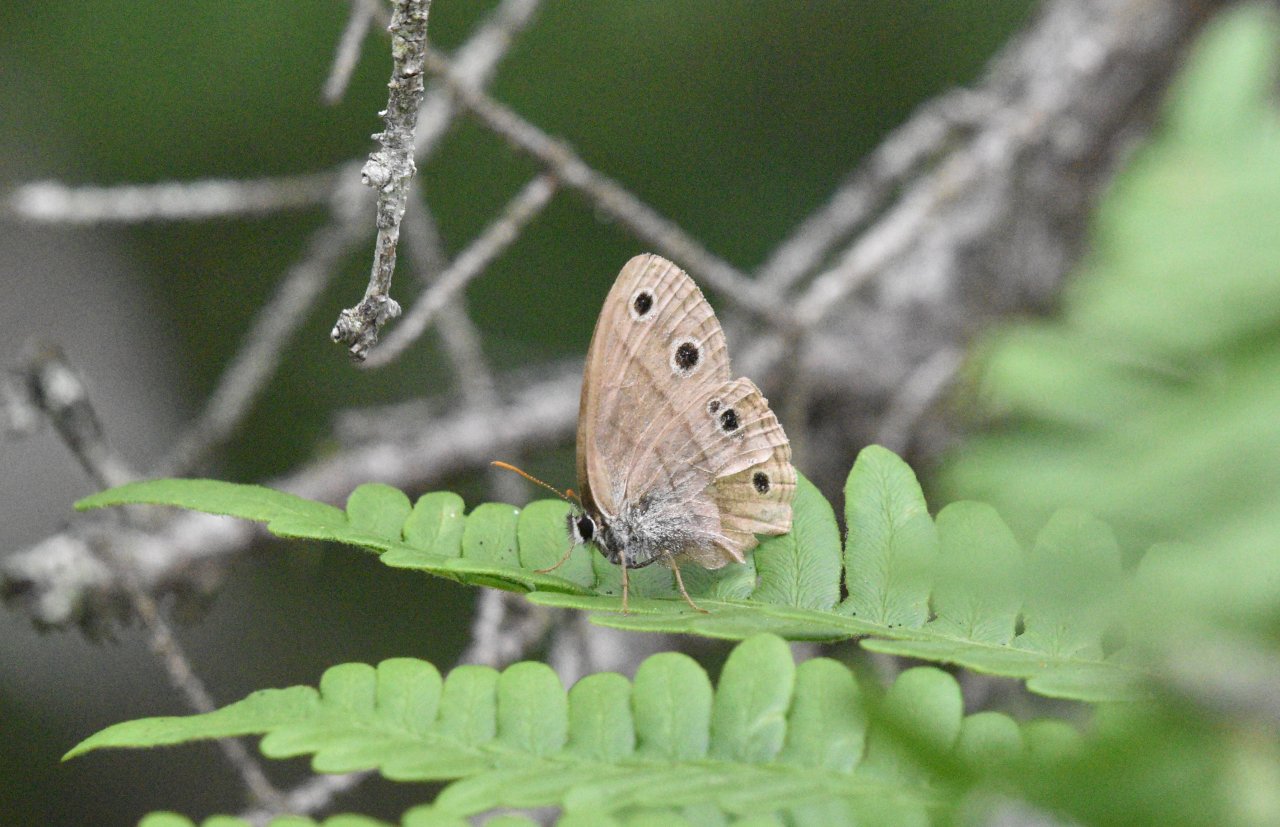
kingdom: Animalia
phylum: Arthropoda
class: Insecta
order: Lepidoptera
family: Nymphalidae
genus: Euptychia
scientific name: Euptychia cymela
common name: Little Wood Satyr
